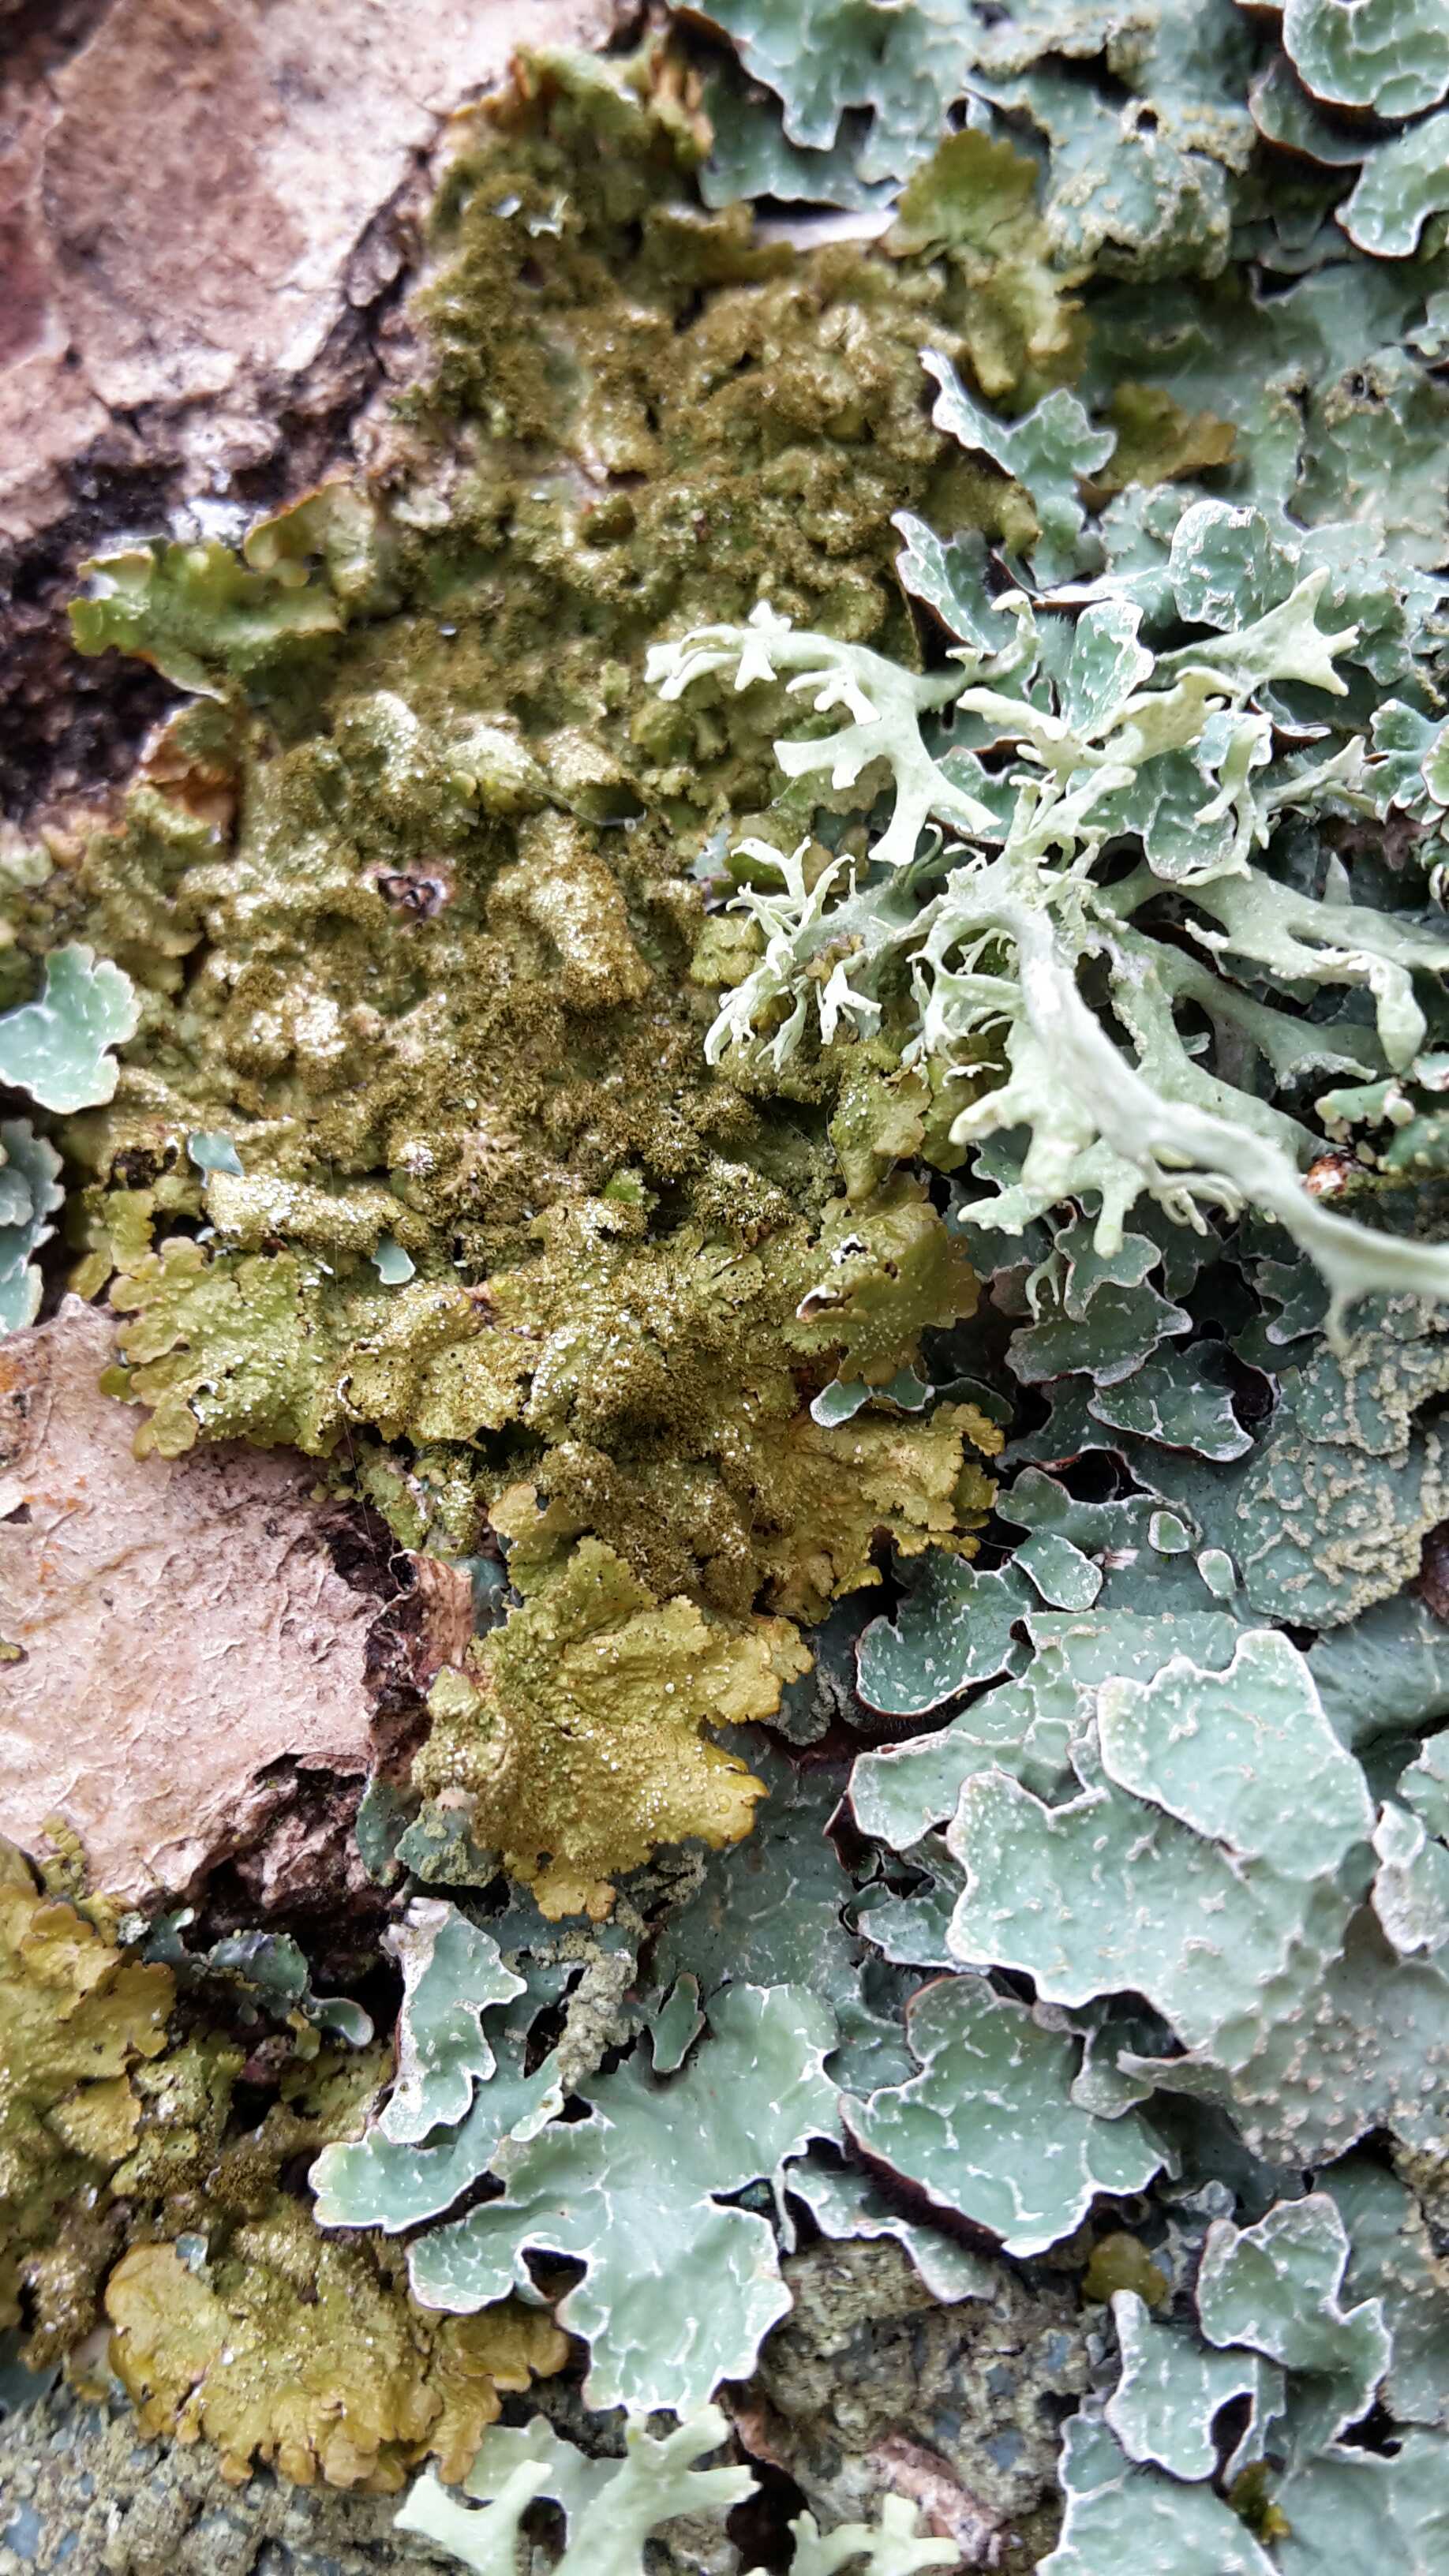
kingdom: Fungi
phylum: Ascomycota
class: Lecanoromycetes
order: Lecanorales
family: Parmeliaceae
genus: Melanelixia
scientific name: Melanelixia subaurifera
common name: guldpudret skållav
